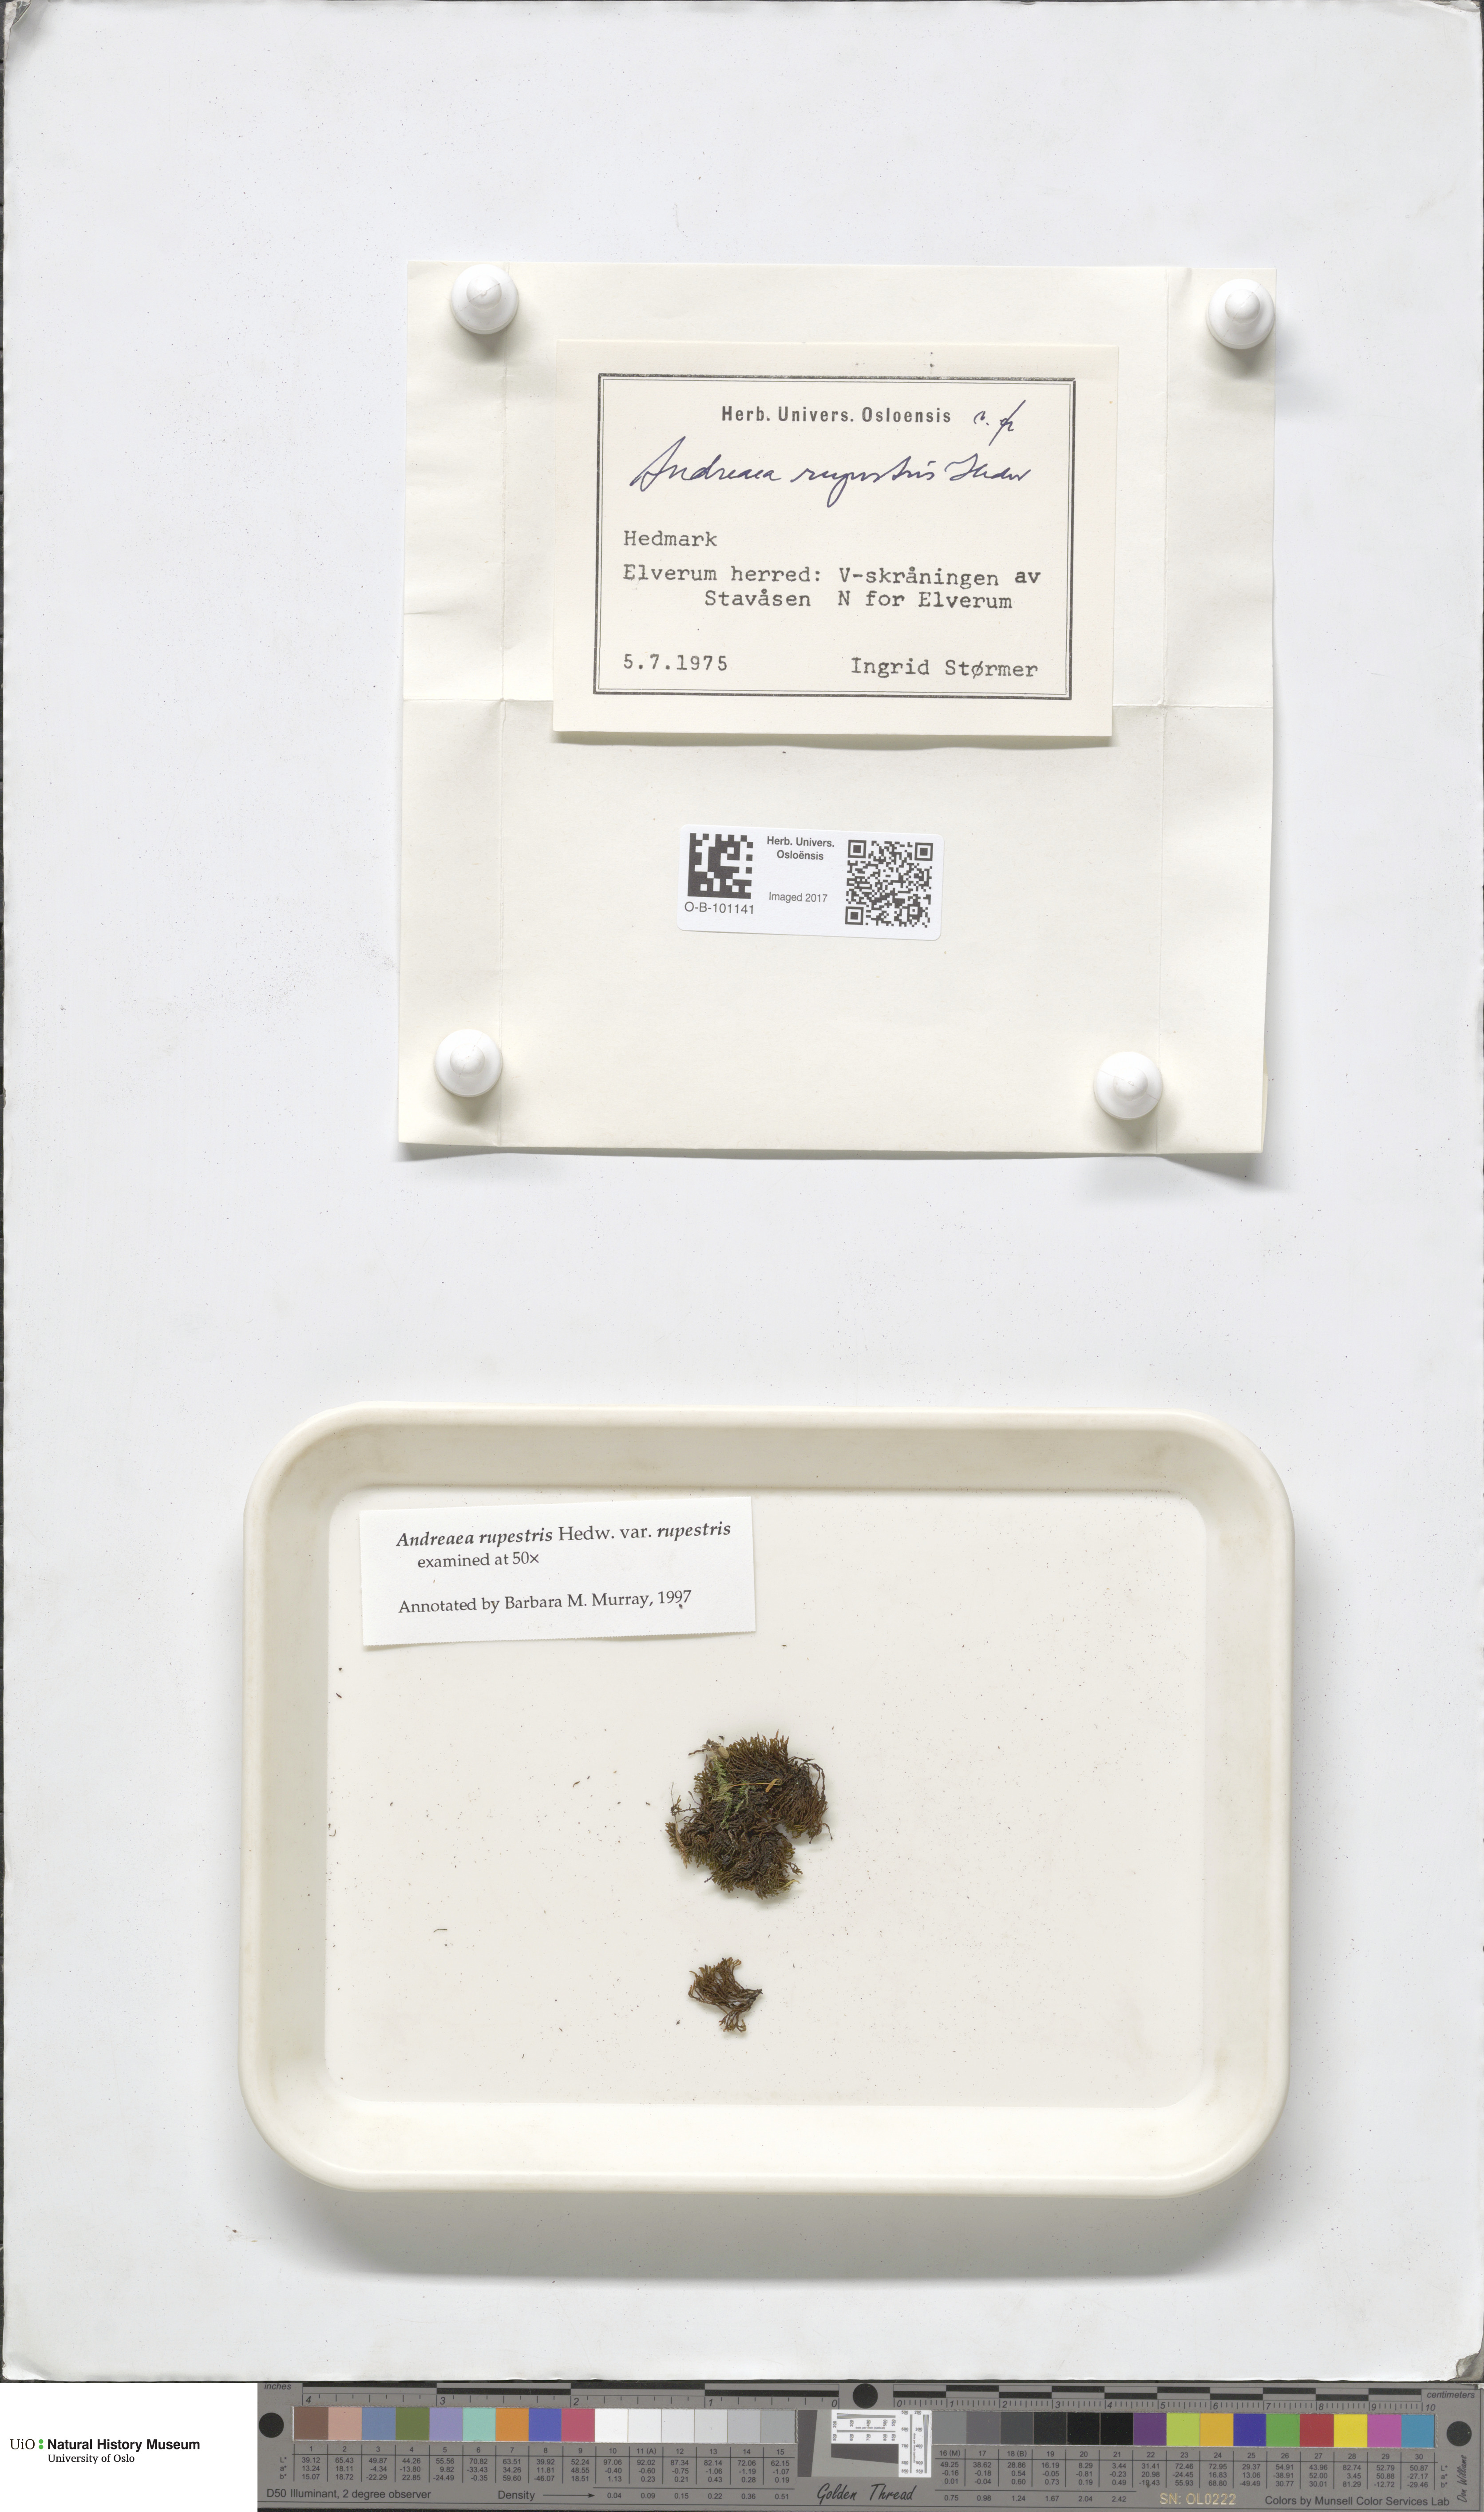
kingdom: Plantae
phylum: Bryophyta
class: Andreaeopsida
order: Andreaeales
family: Andreaeaceae
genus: Andreaea
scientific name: Andreaea rupestris
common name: Black rock moss
